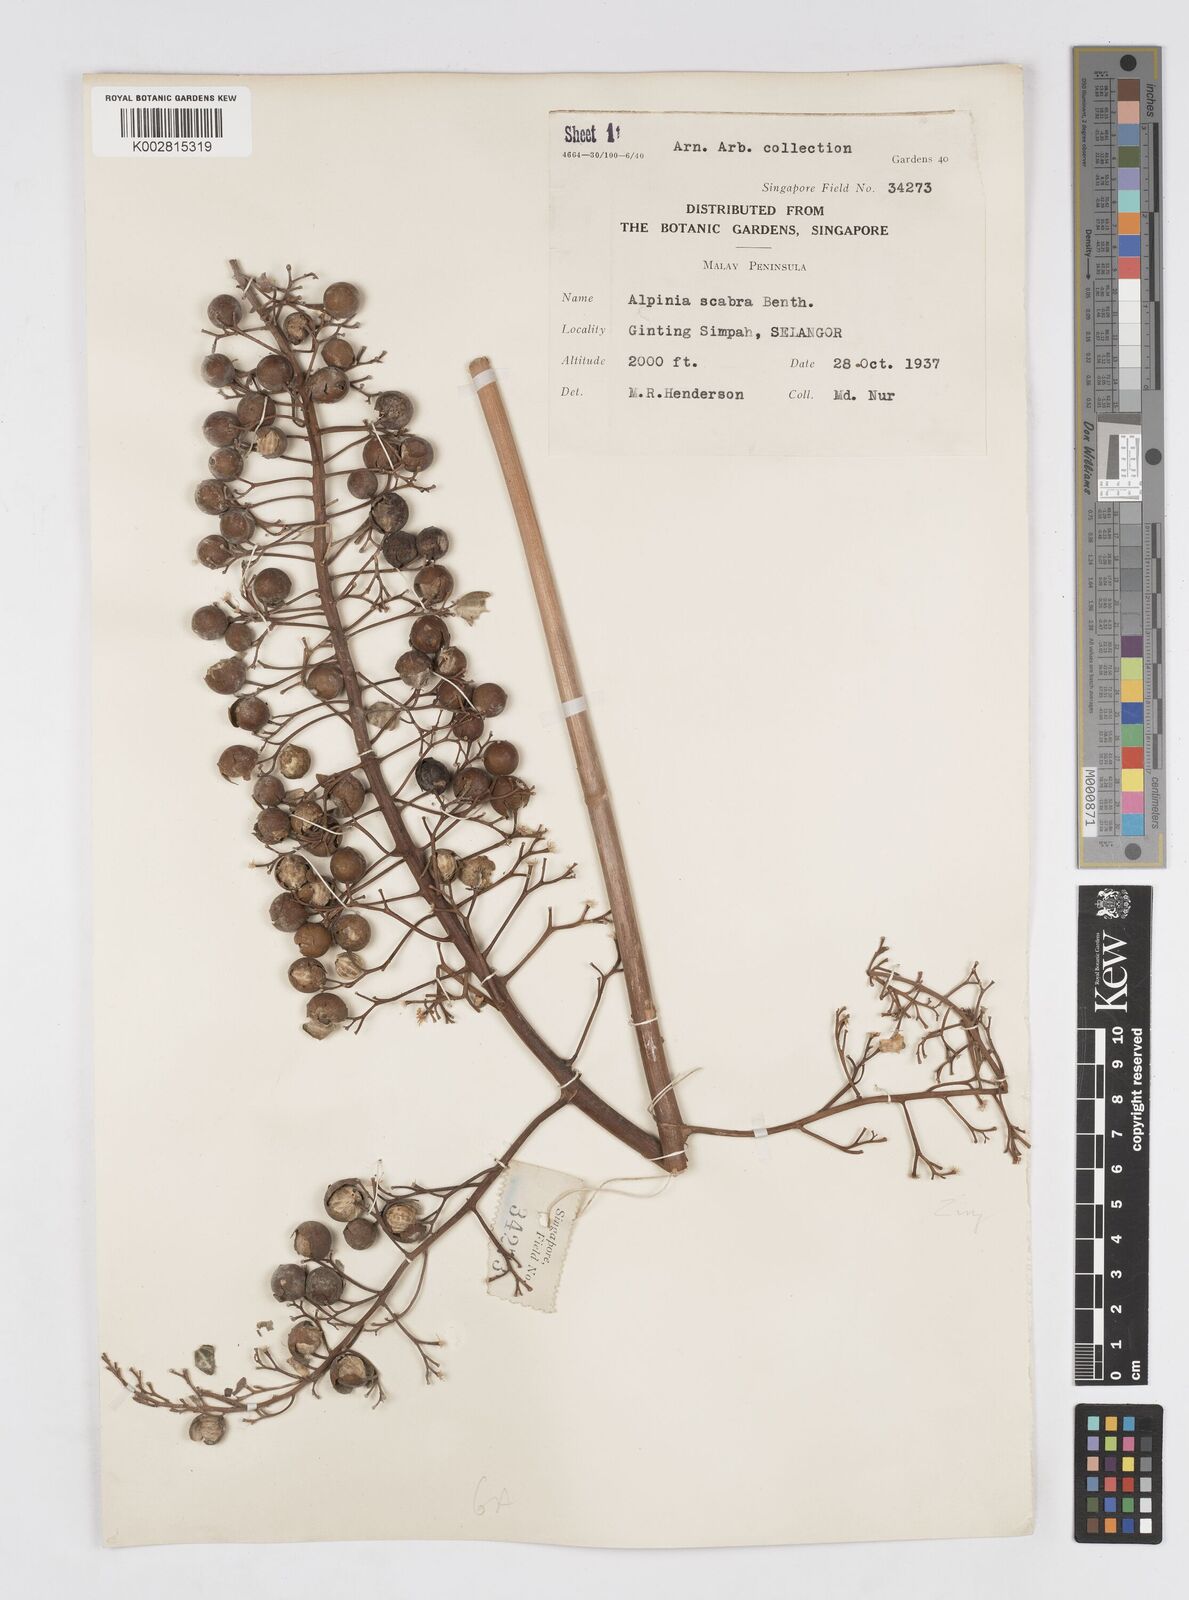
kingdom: Plantae
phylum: Tracheophyta
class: Liliopsida
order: Zingiberales
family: Zingiberaceae
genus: Alpinia
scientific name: Alpinia scabra
